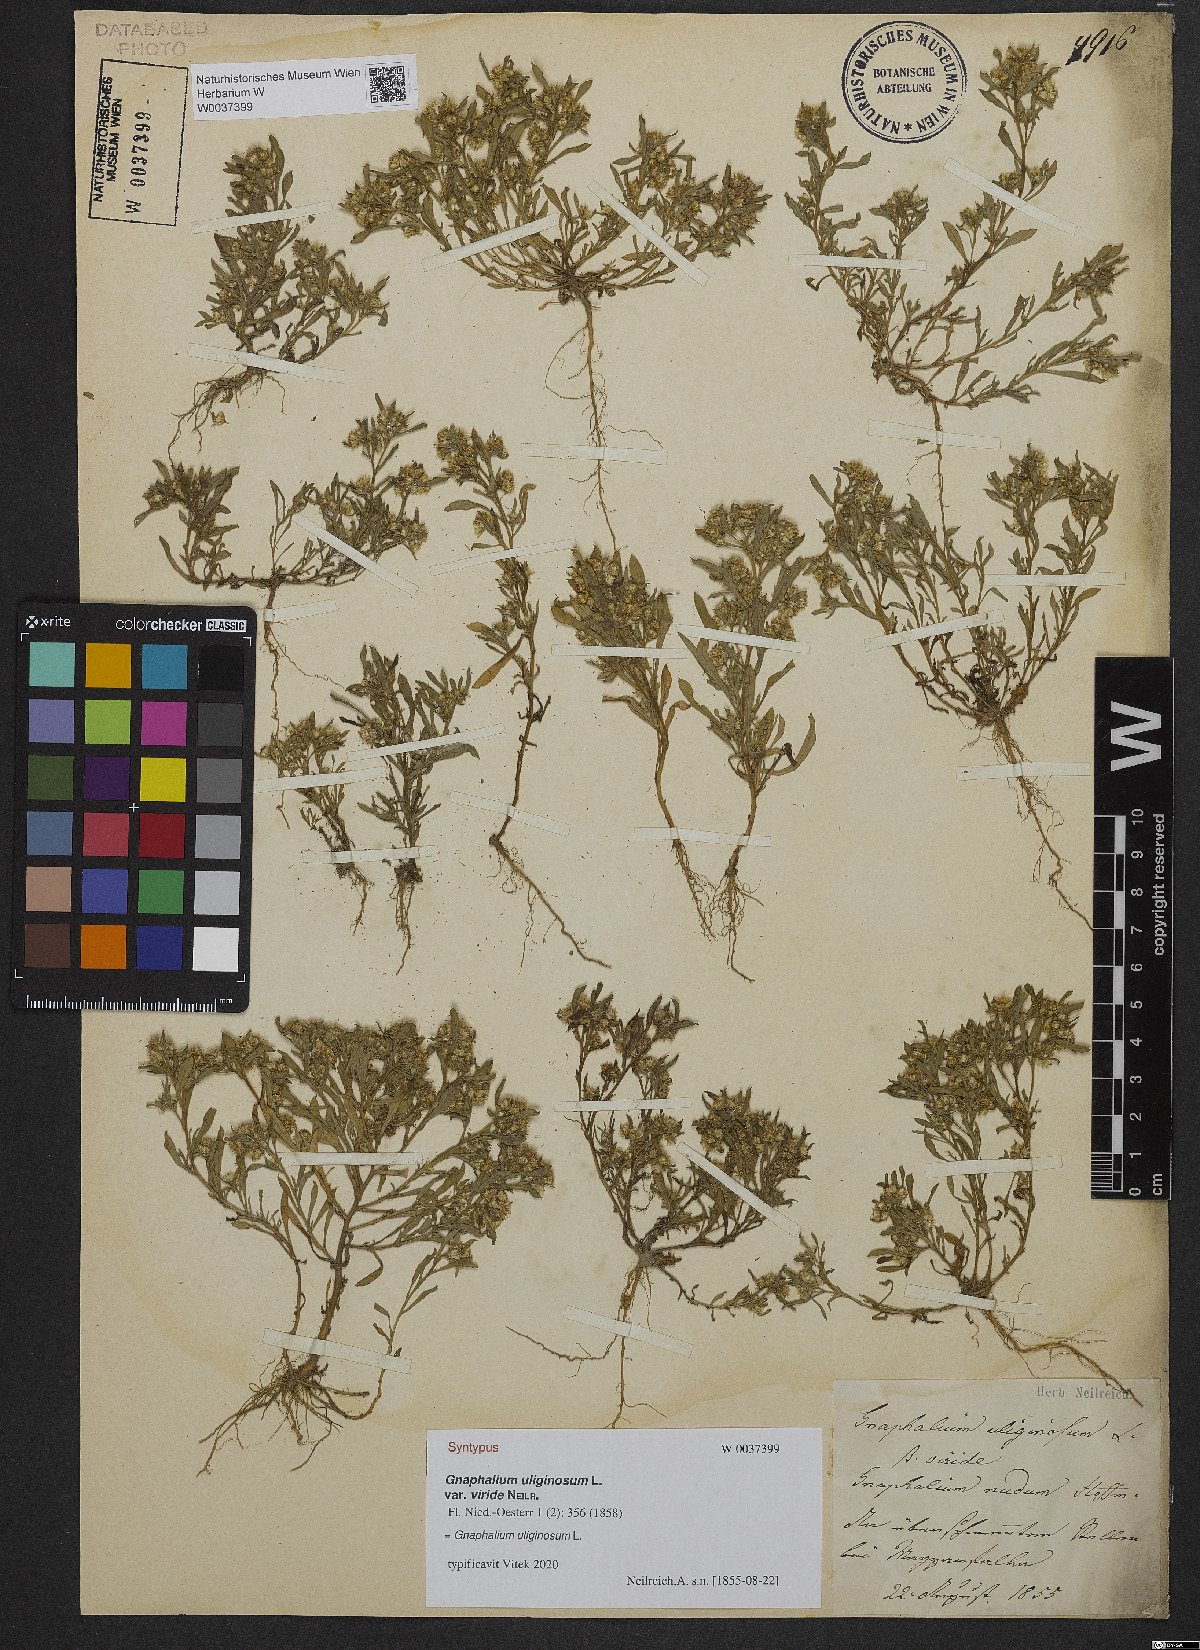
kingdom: Plantae
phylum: Tracheophyta
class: Magnoliopsida
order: Asterales
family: Asteraceae
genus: Gnaphalium
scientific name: Gnaphalium uliginosum
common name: Marsh cudweed
